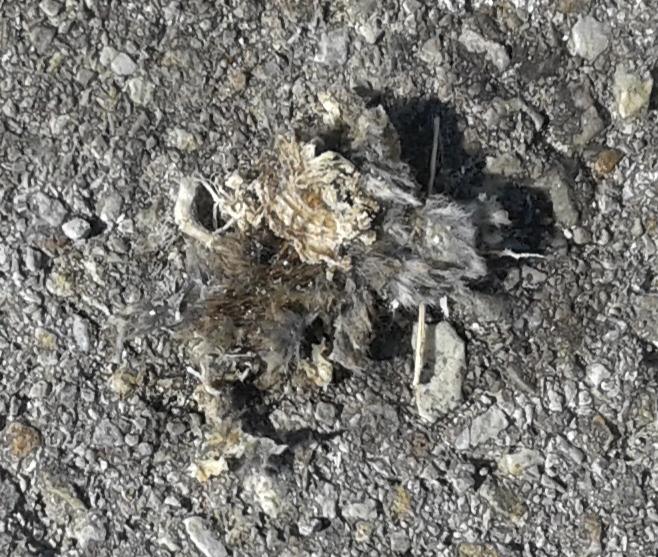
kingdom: Animalia
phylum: Chordata
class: Aves
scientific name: Aves
